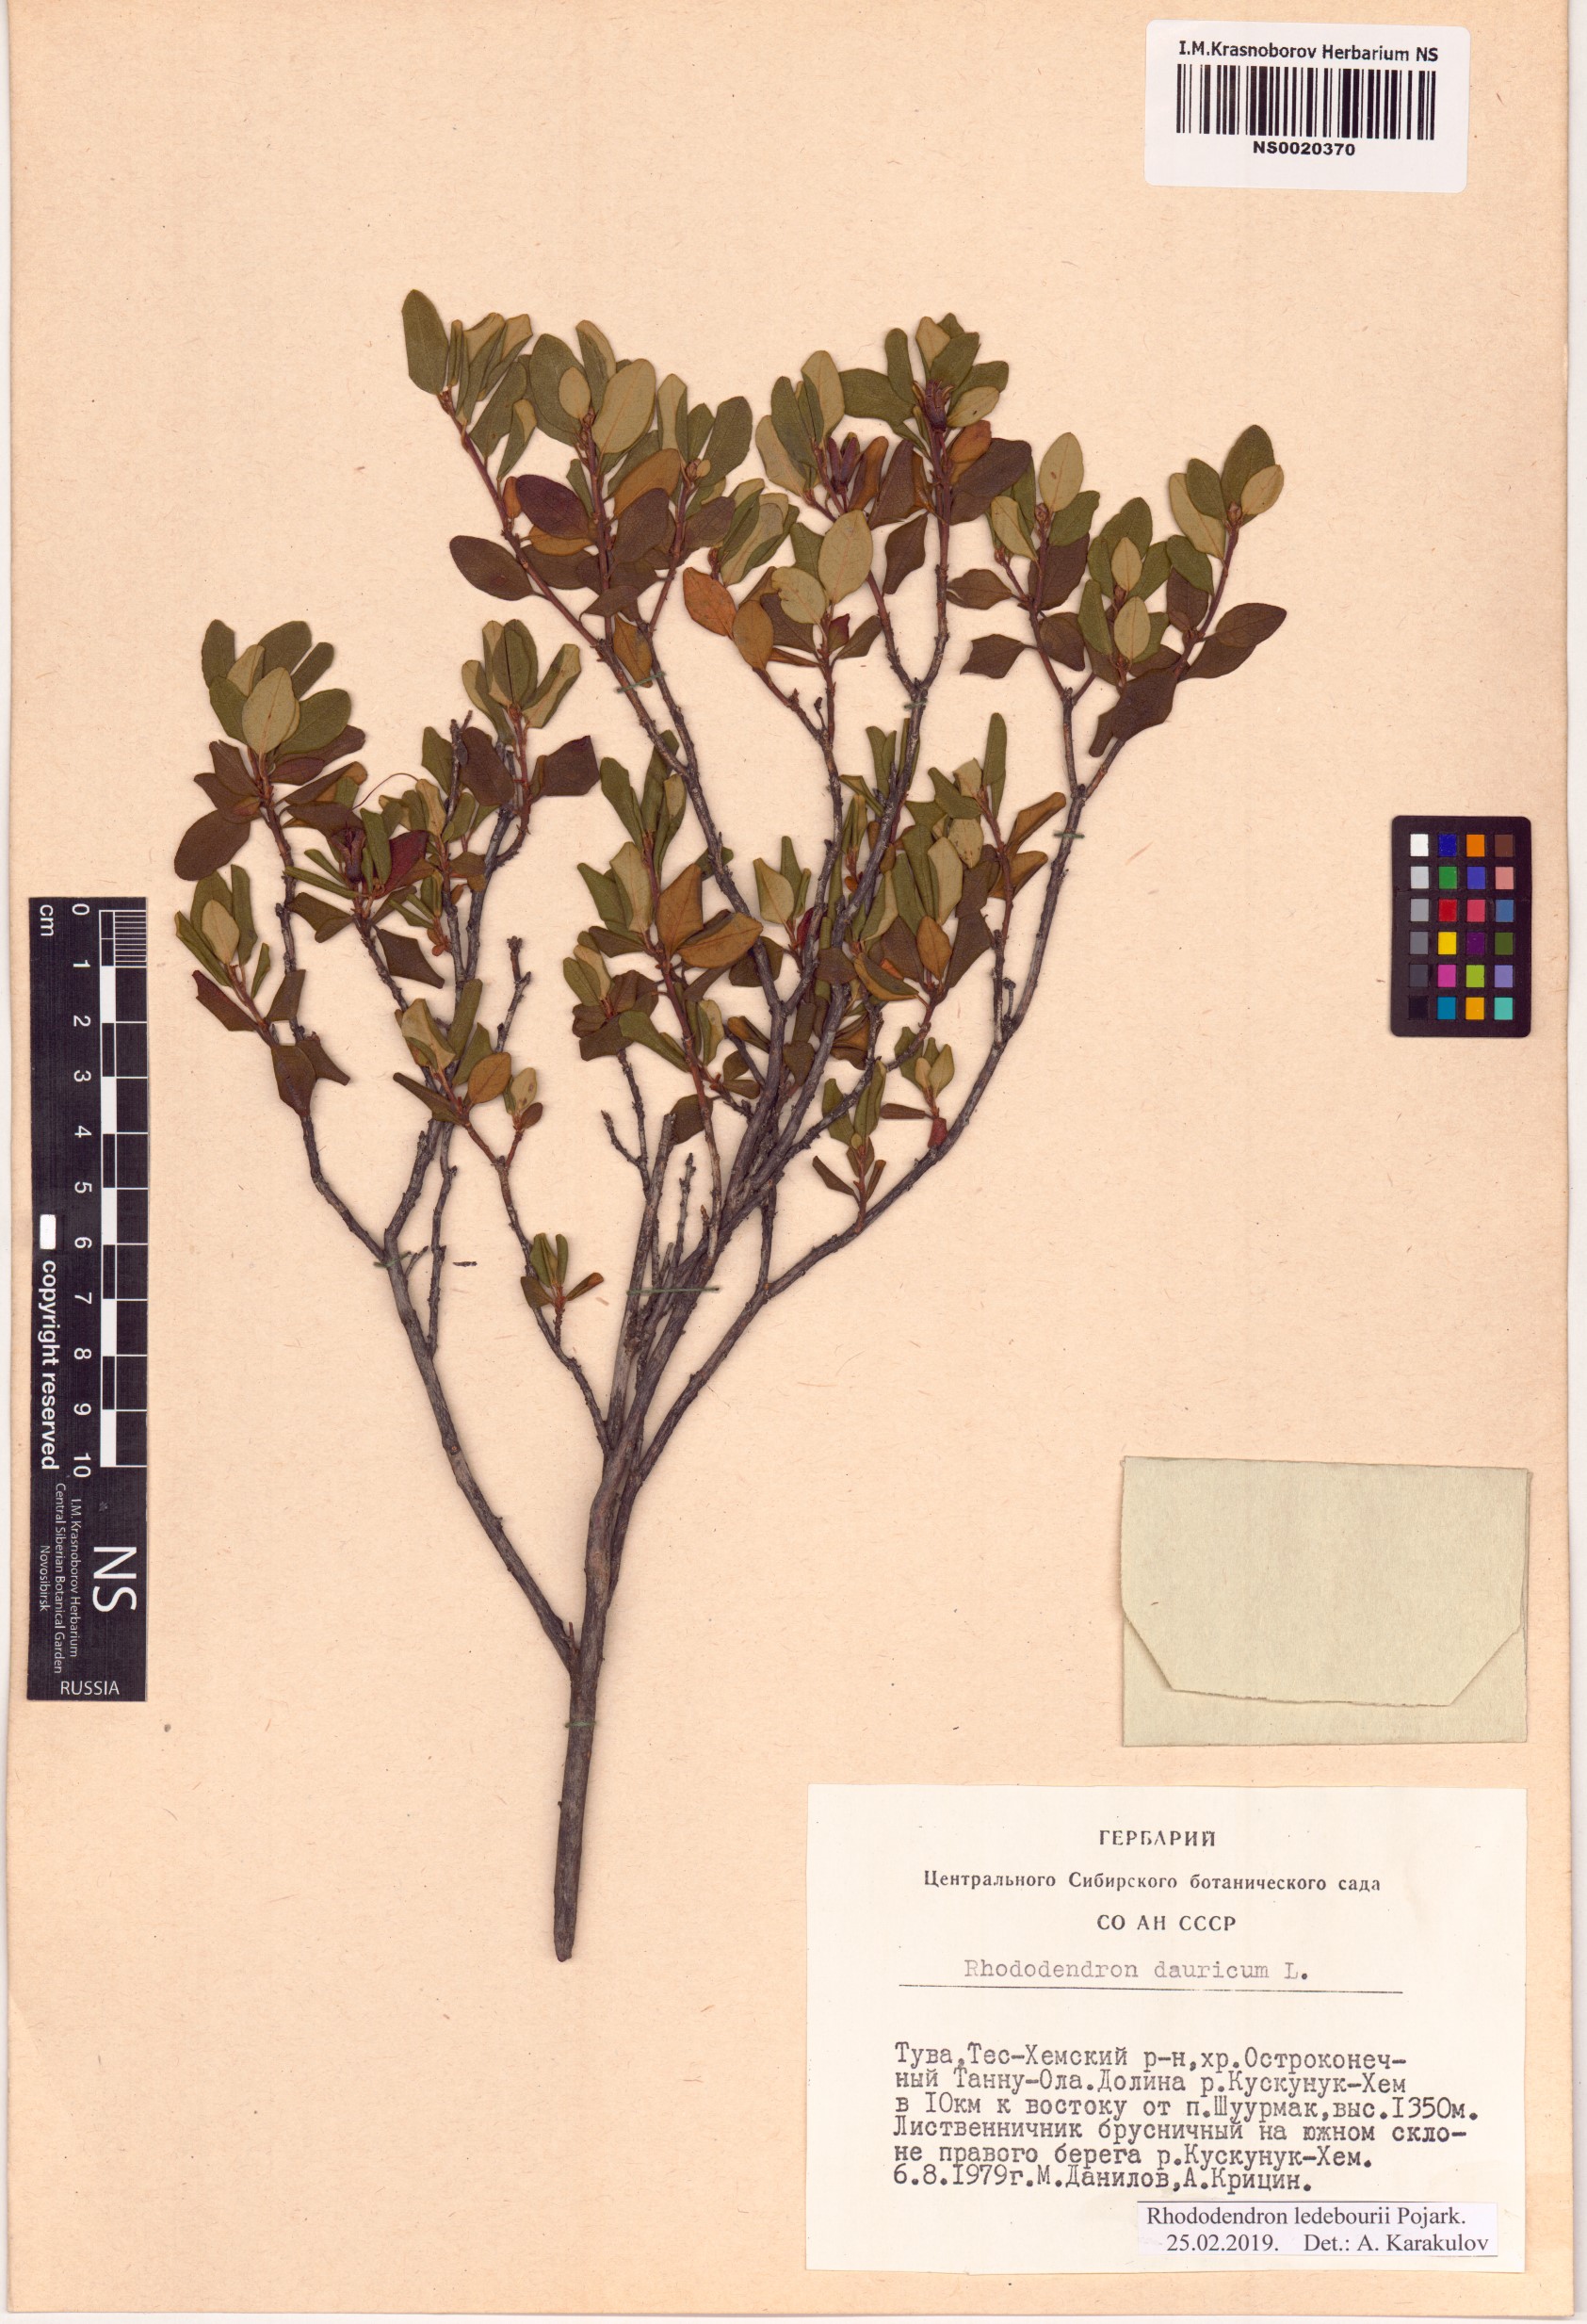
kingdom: Plantae
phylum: Tracheophyta
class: Magnoliopsida
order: Ericales
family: Ericaceae
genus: Rhododendron
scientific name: Rhododendron dauricum
